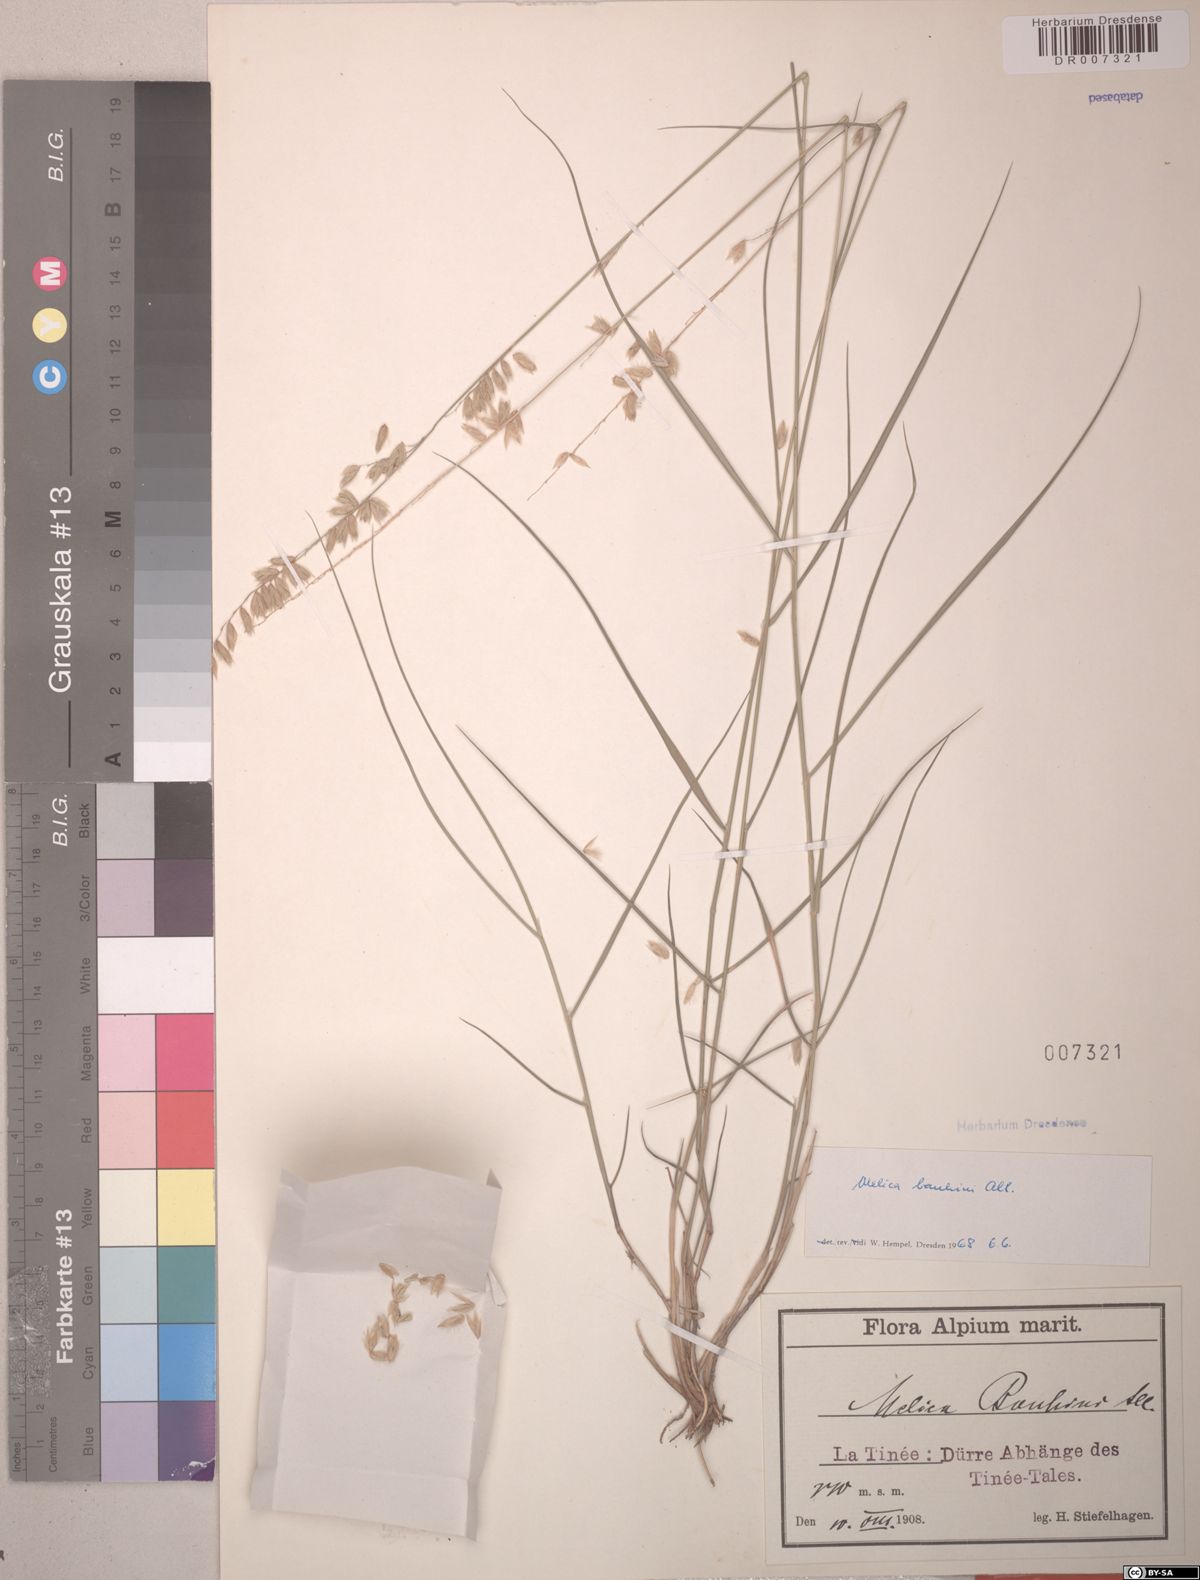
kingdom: Plantae
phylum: Tracheophyta
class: Liliopsida
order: Poales
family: Poaceae
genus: Melica
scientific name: Melica amethystina
